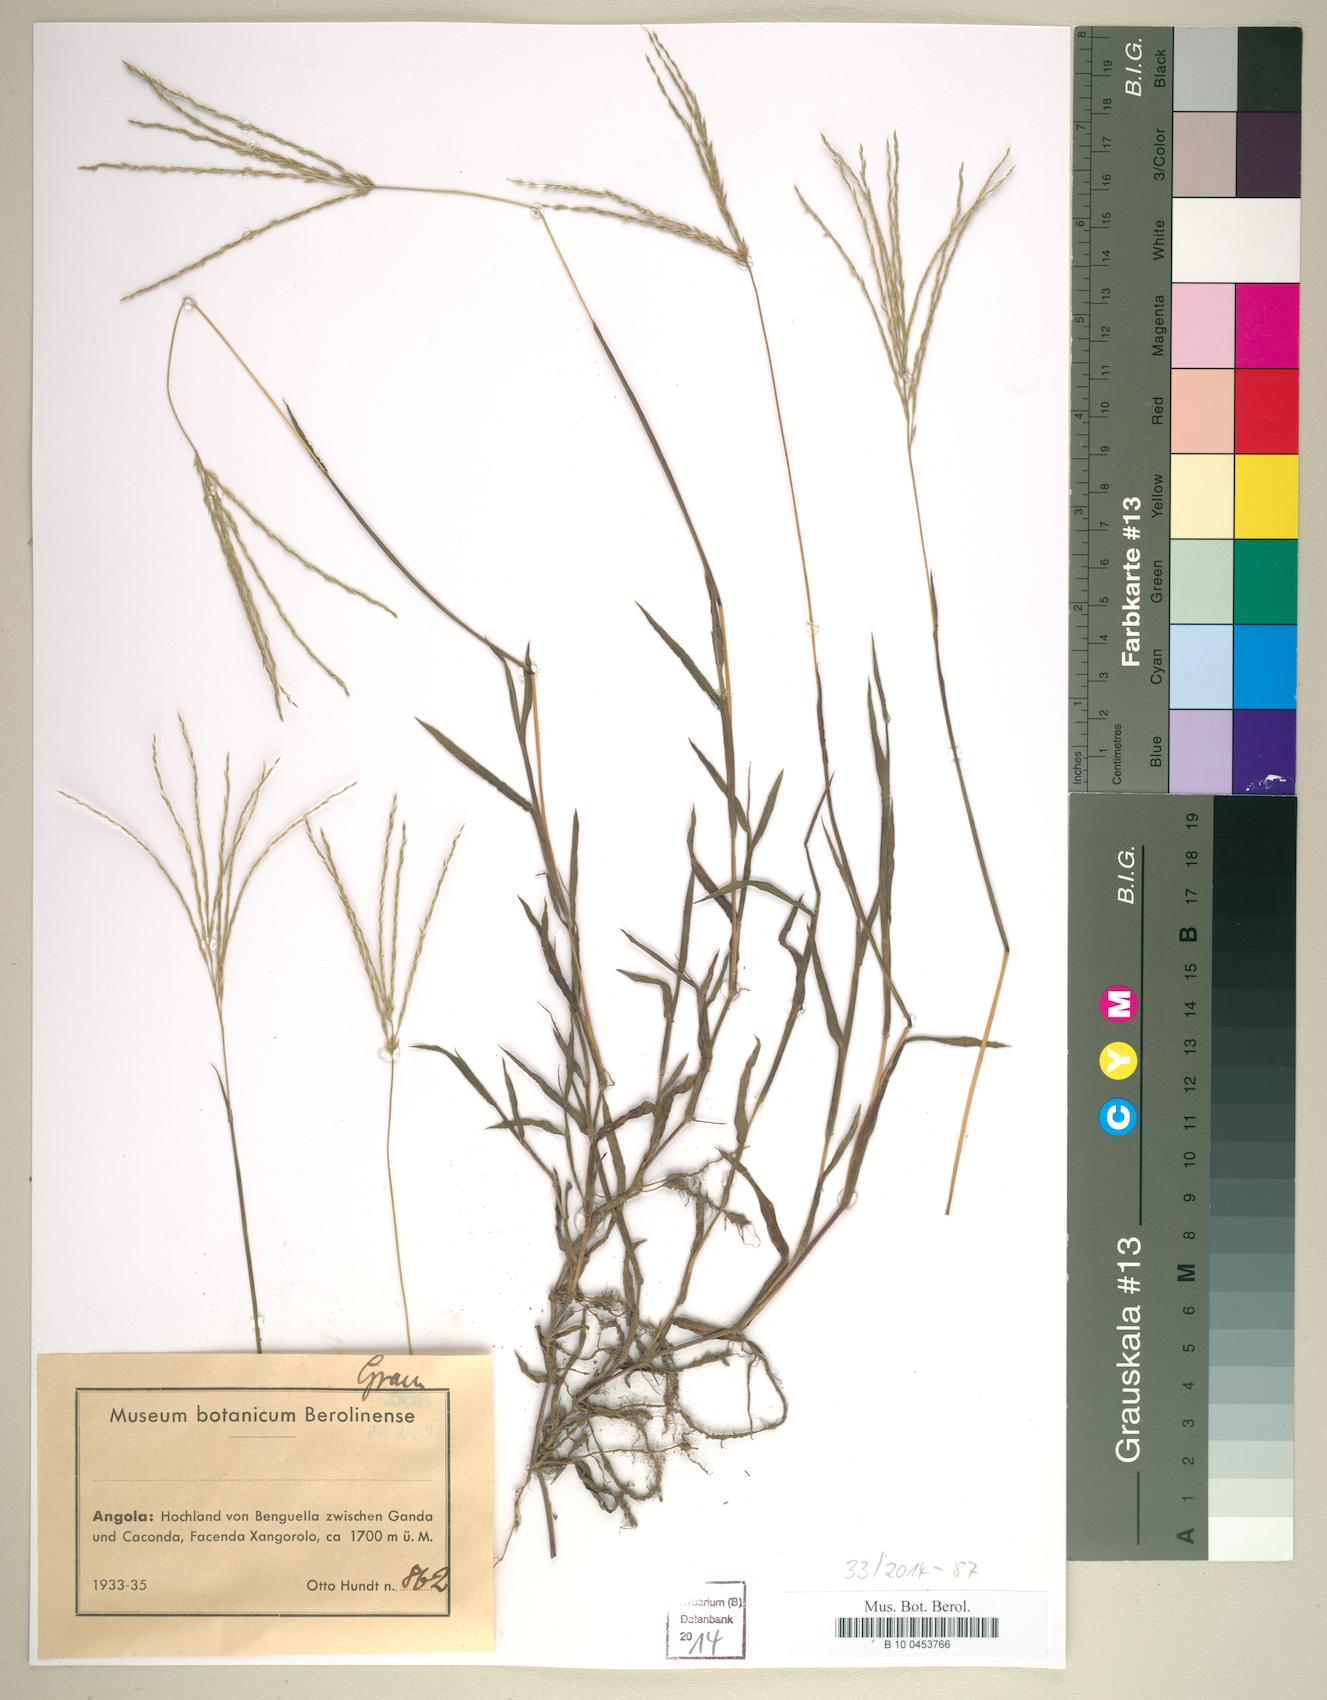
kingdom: Plantae
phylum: Tracheophyta
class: Liliopsida
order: Poales
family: Poaceae
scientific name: Poaceae
